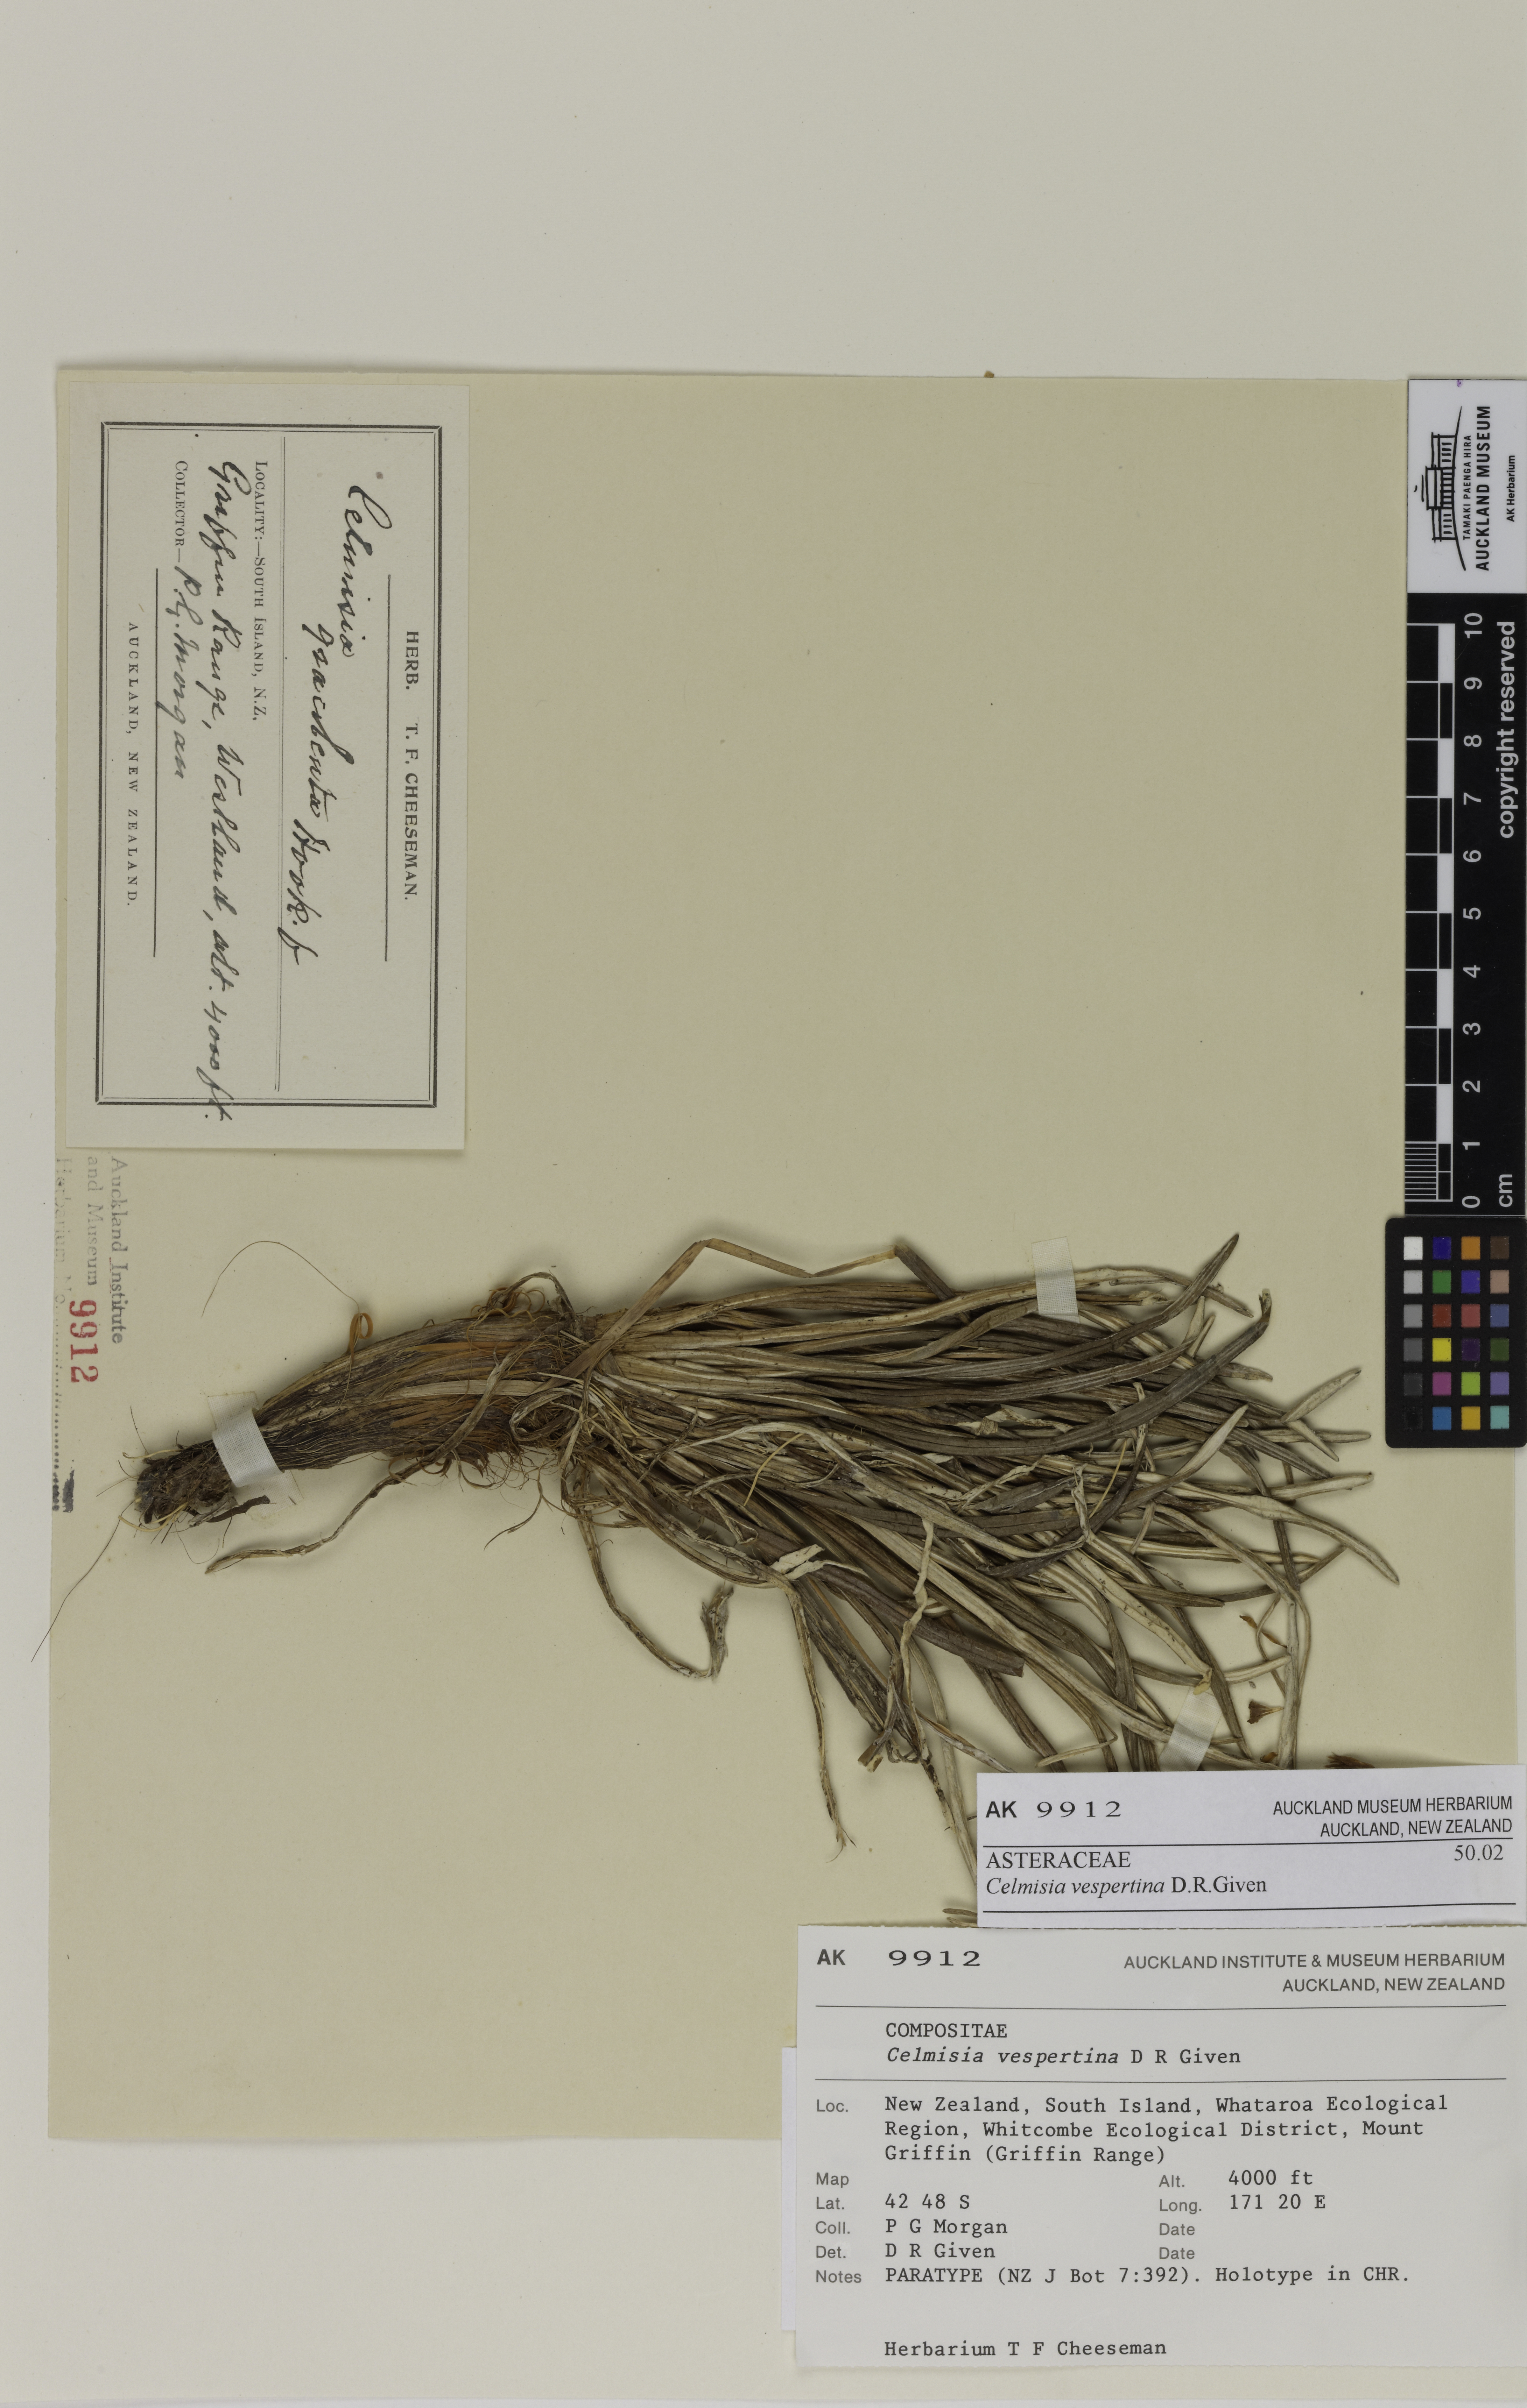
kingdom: Plantae
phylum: Tracheophyta
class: Magnoliopsida
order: Asterales
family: Asteraceae
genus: Celmisia
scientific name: Celmisia vespertina
